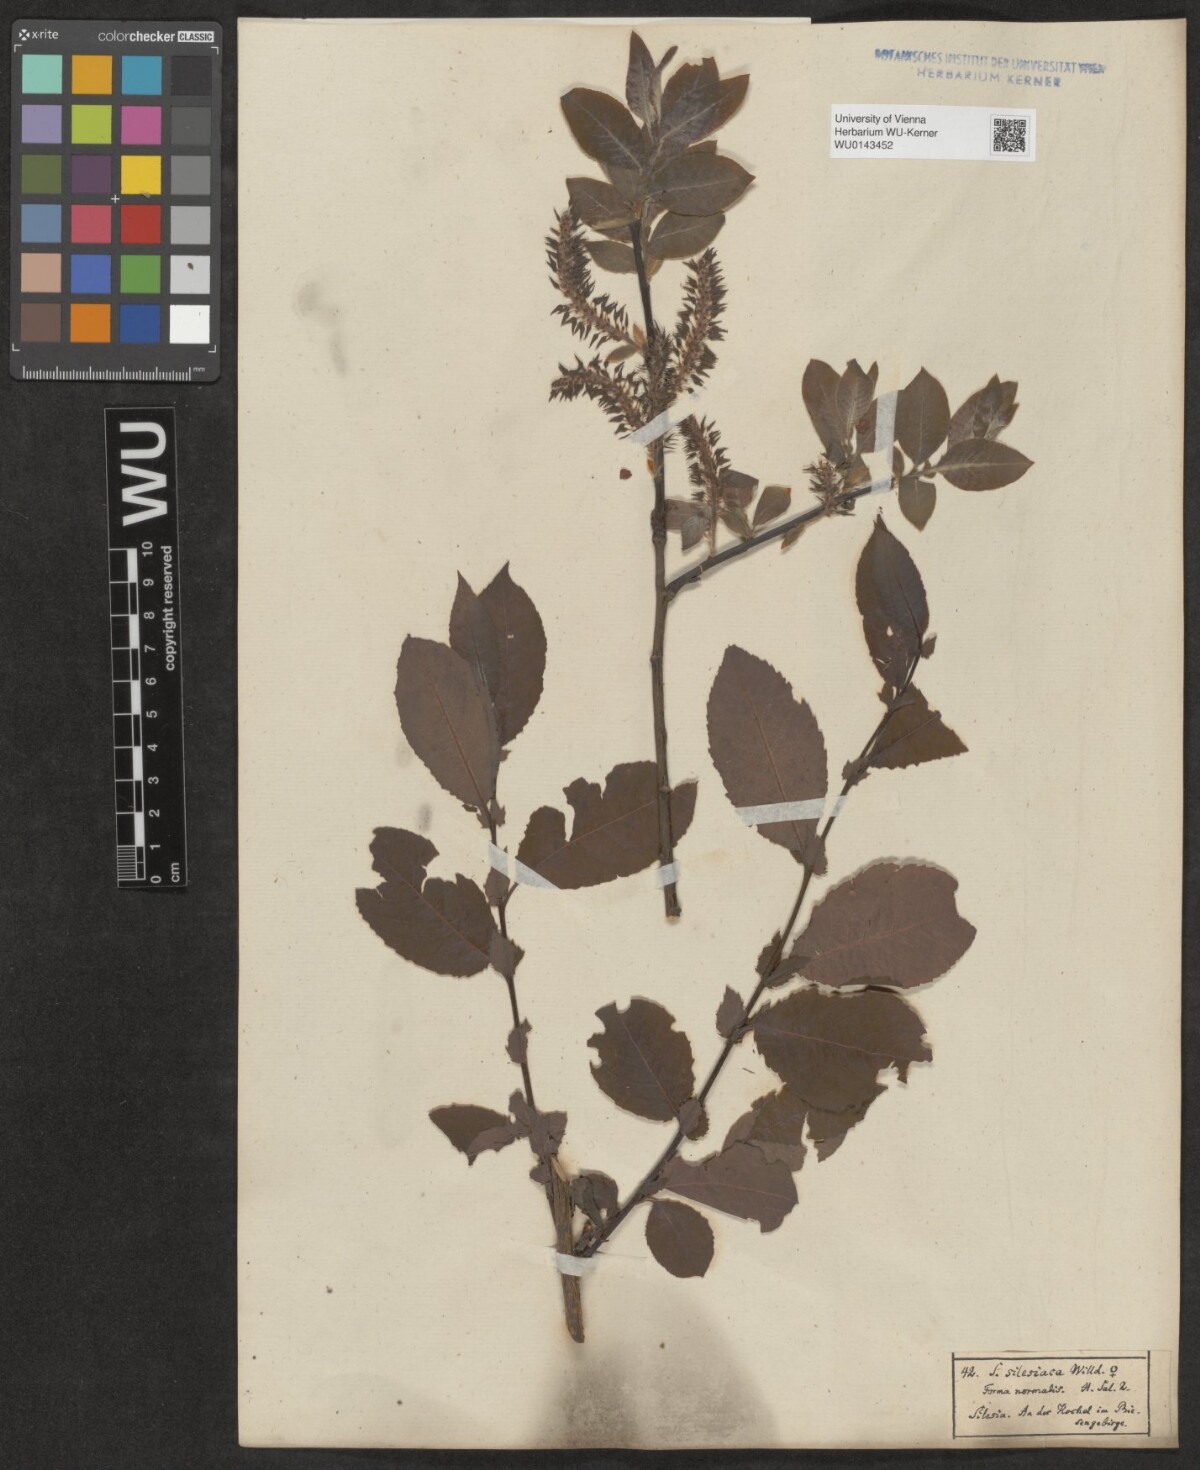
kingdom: Plantae
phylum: Tracheophyta
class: Magnoliopsida
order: Malpighiales
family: Salicaceae
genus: Salix
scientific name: Salix silesiaca
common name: Silesian willow
